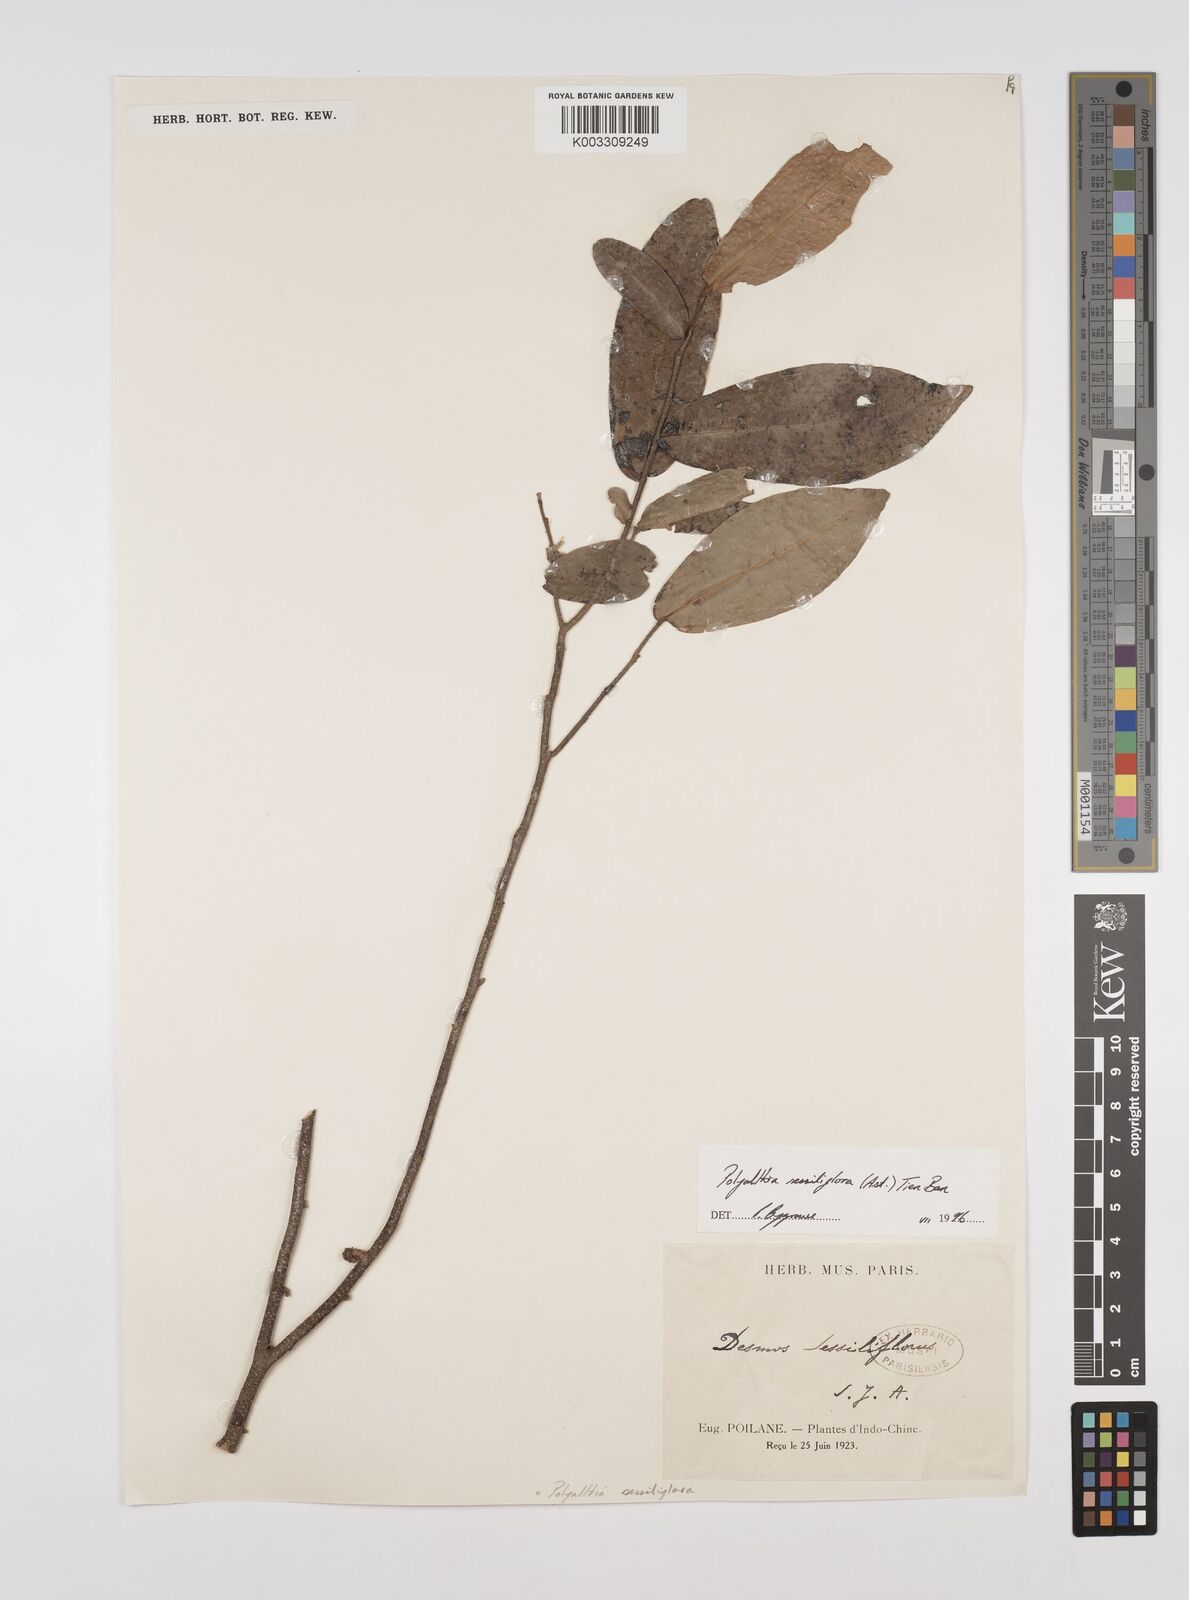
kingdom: Plantae
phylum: Tracheophyta
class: Magnoliopsida
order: Magnoliales
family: Annonaceae
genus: Polyalthia
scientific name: Polyalthia sessiliflora
